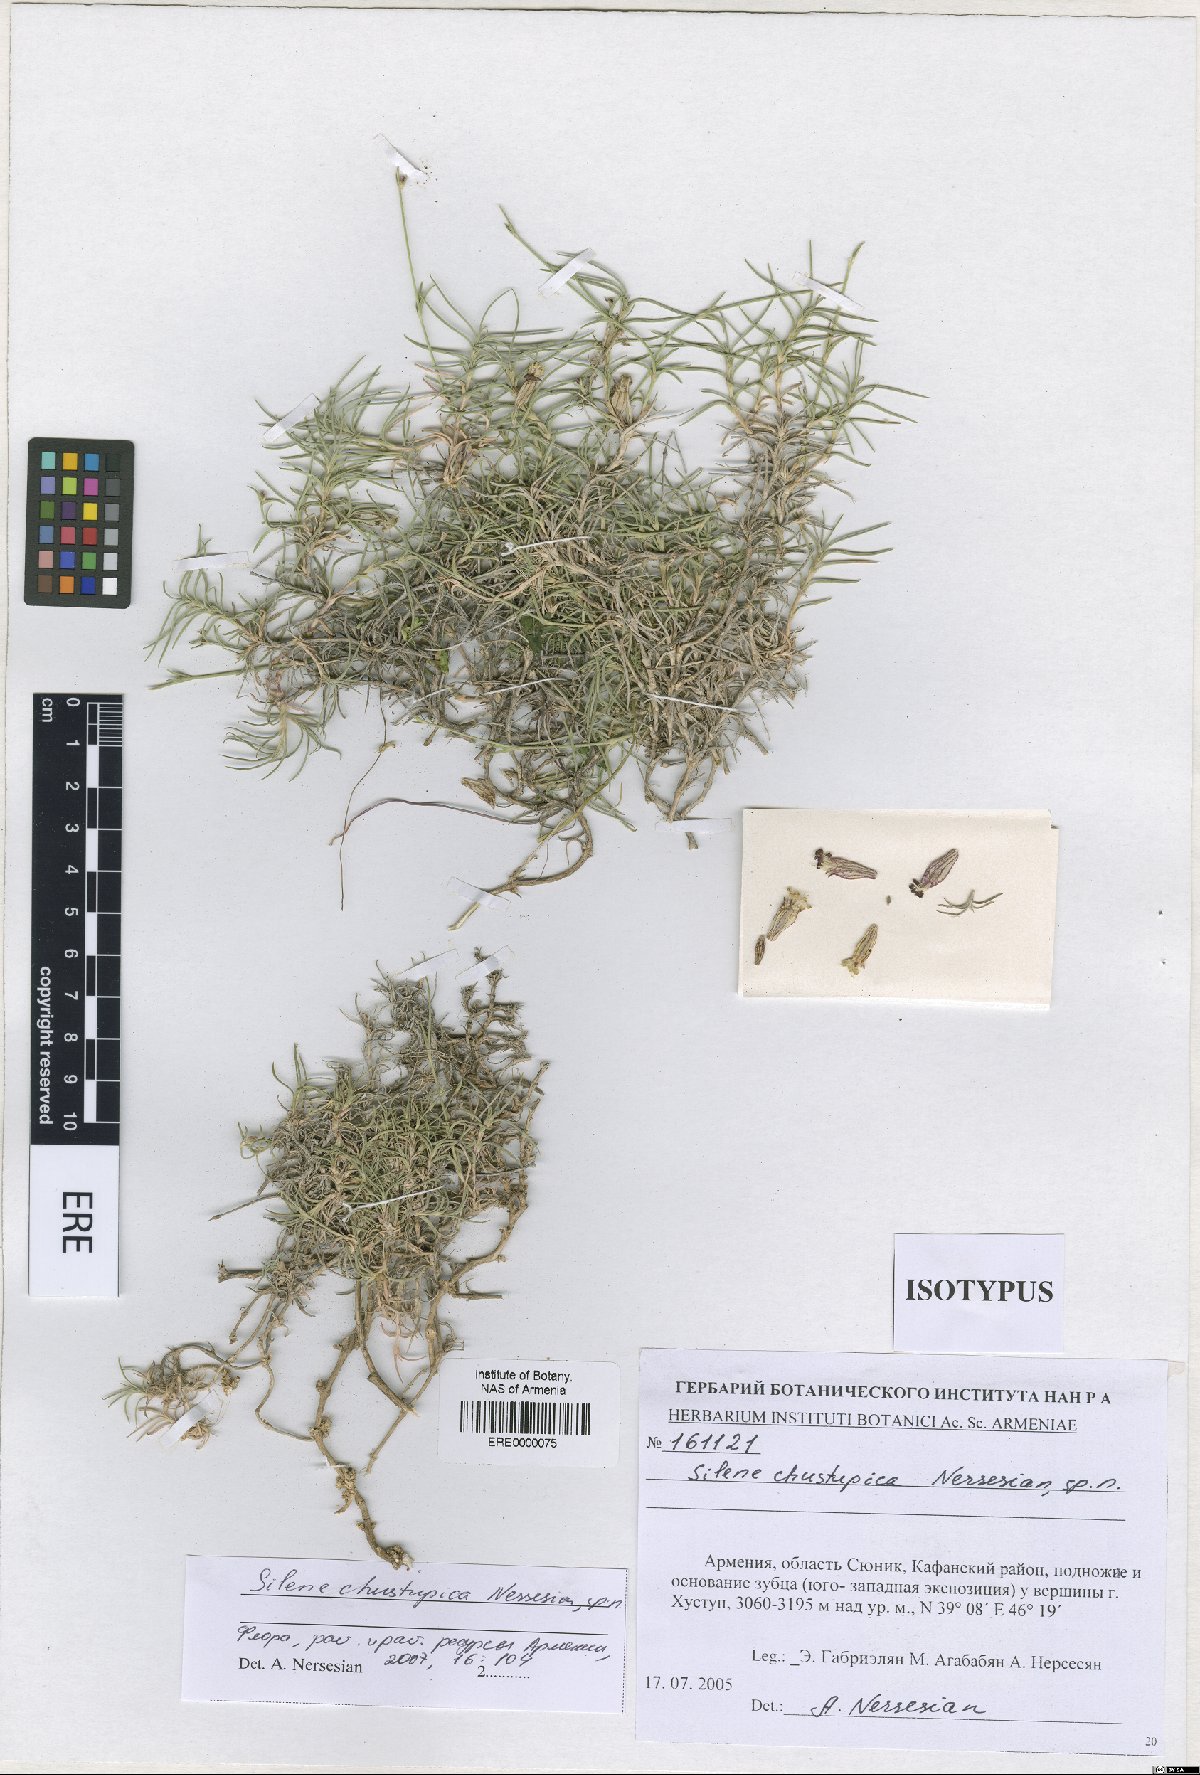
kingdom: Plantae
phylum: Tracheophyta
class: Magnoliopsida
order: Caryophyllales
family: Caryophyllaceae
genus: Silene
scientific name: Silene pungens
